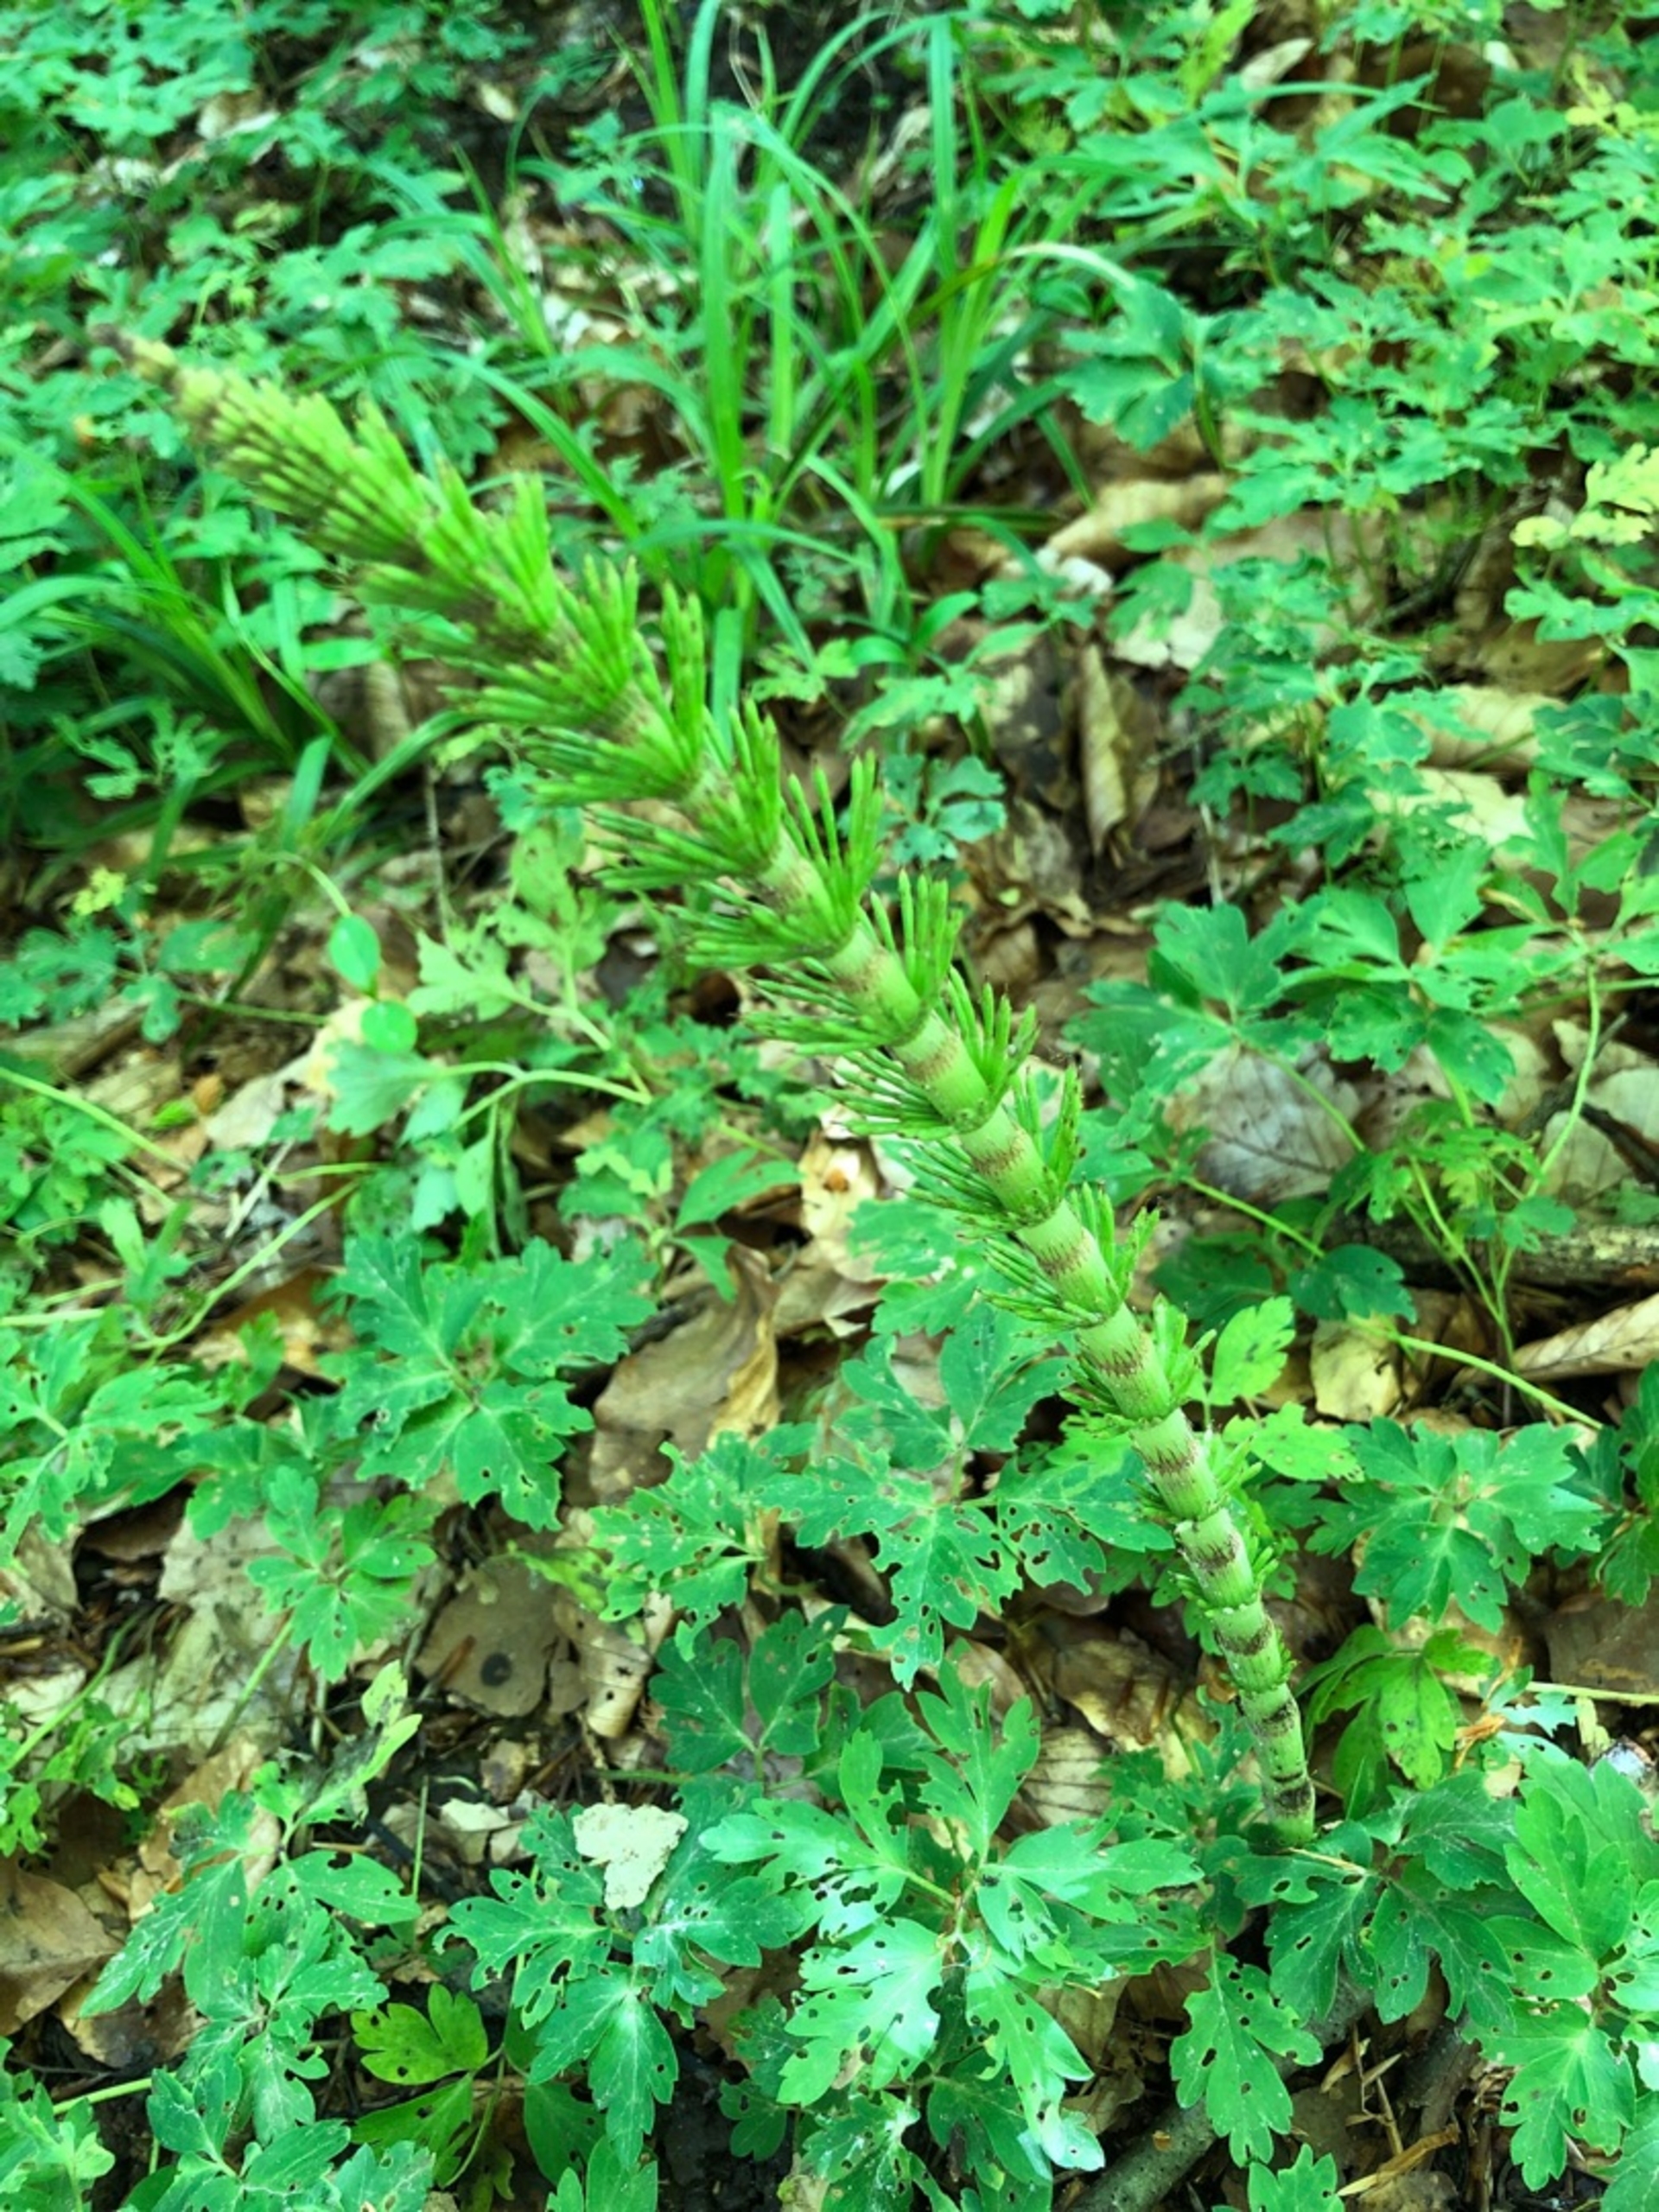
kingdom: Plantae
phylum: Tracheophyta
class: Polypodiopsida
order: Equisetales
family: Equisetaceae
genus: Equisetum
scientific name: Equisetum telmateia
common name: Elfenbens-padderok
